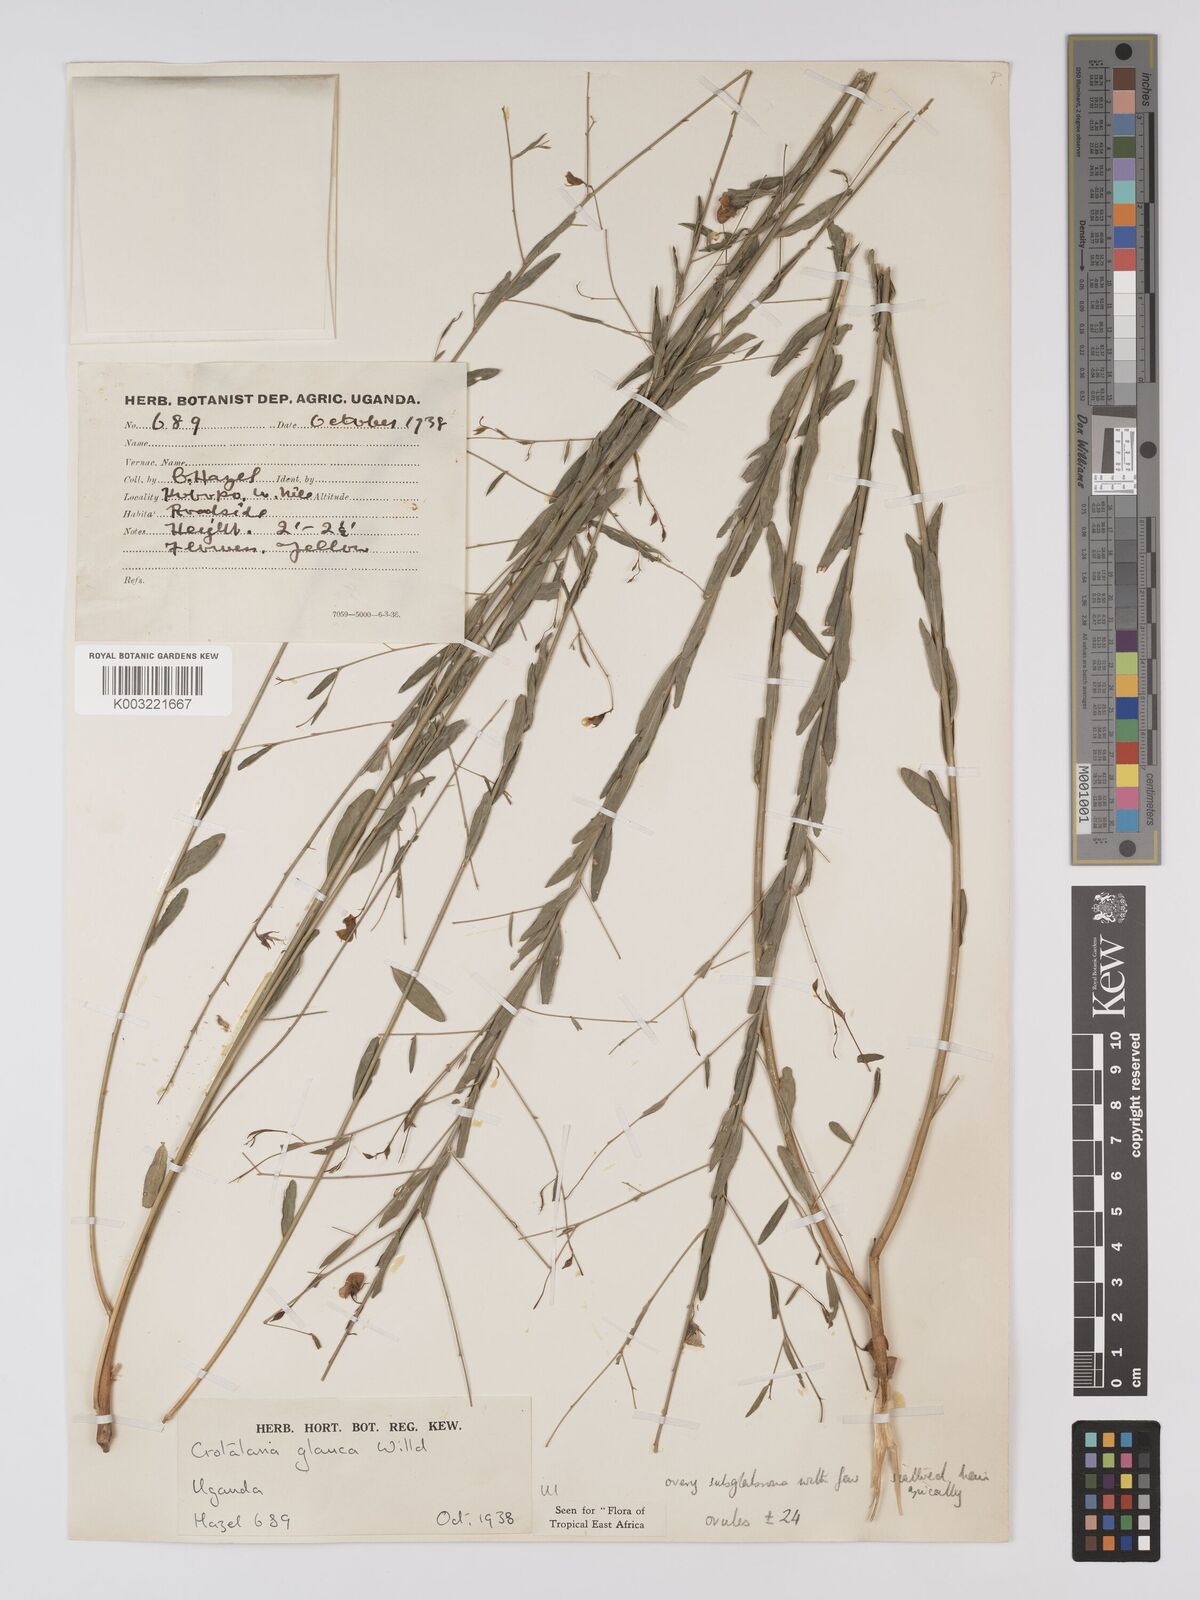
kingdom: Plantae
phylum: Tracheophyta
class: Magnoliopsida
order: Fabales
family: Fabaceae
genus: Crotalaria
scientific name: Crotalaria glauca
